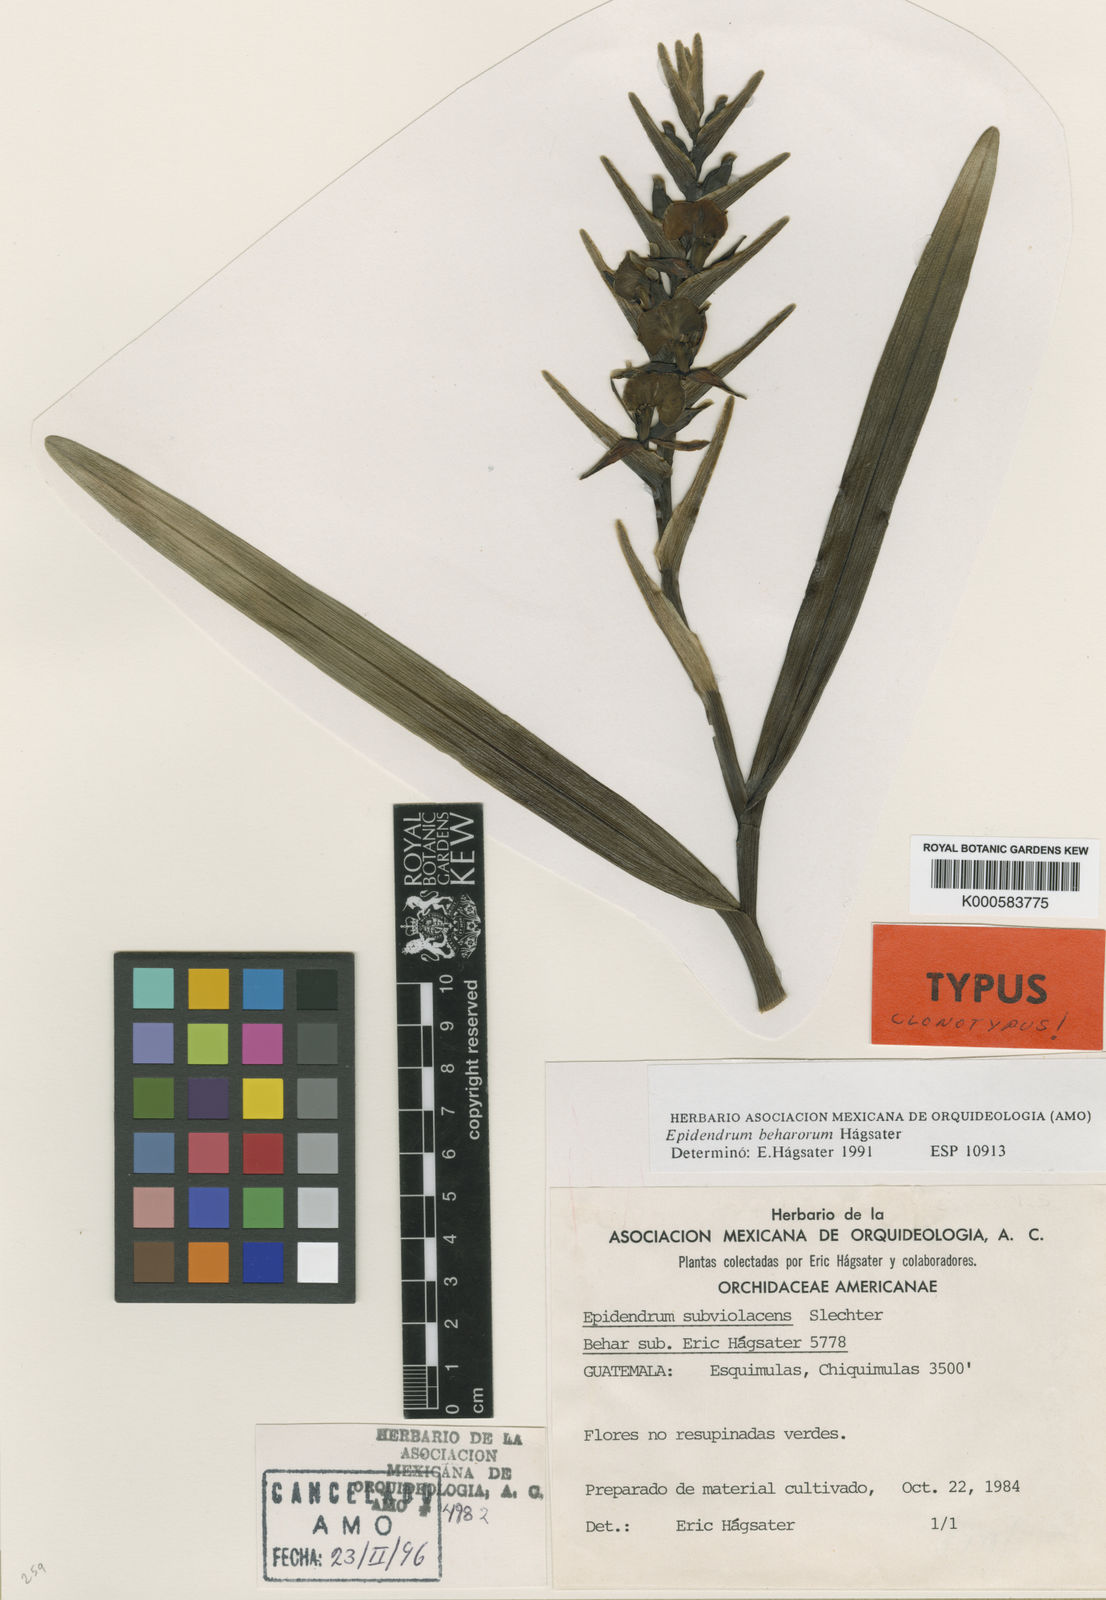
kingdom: Plantae
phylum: Tracheophyta
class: Liliopsida
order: Asparagales
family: Orchidaceae
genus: Epidendrum
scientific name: Epidendrum
